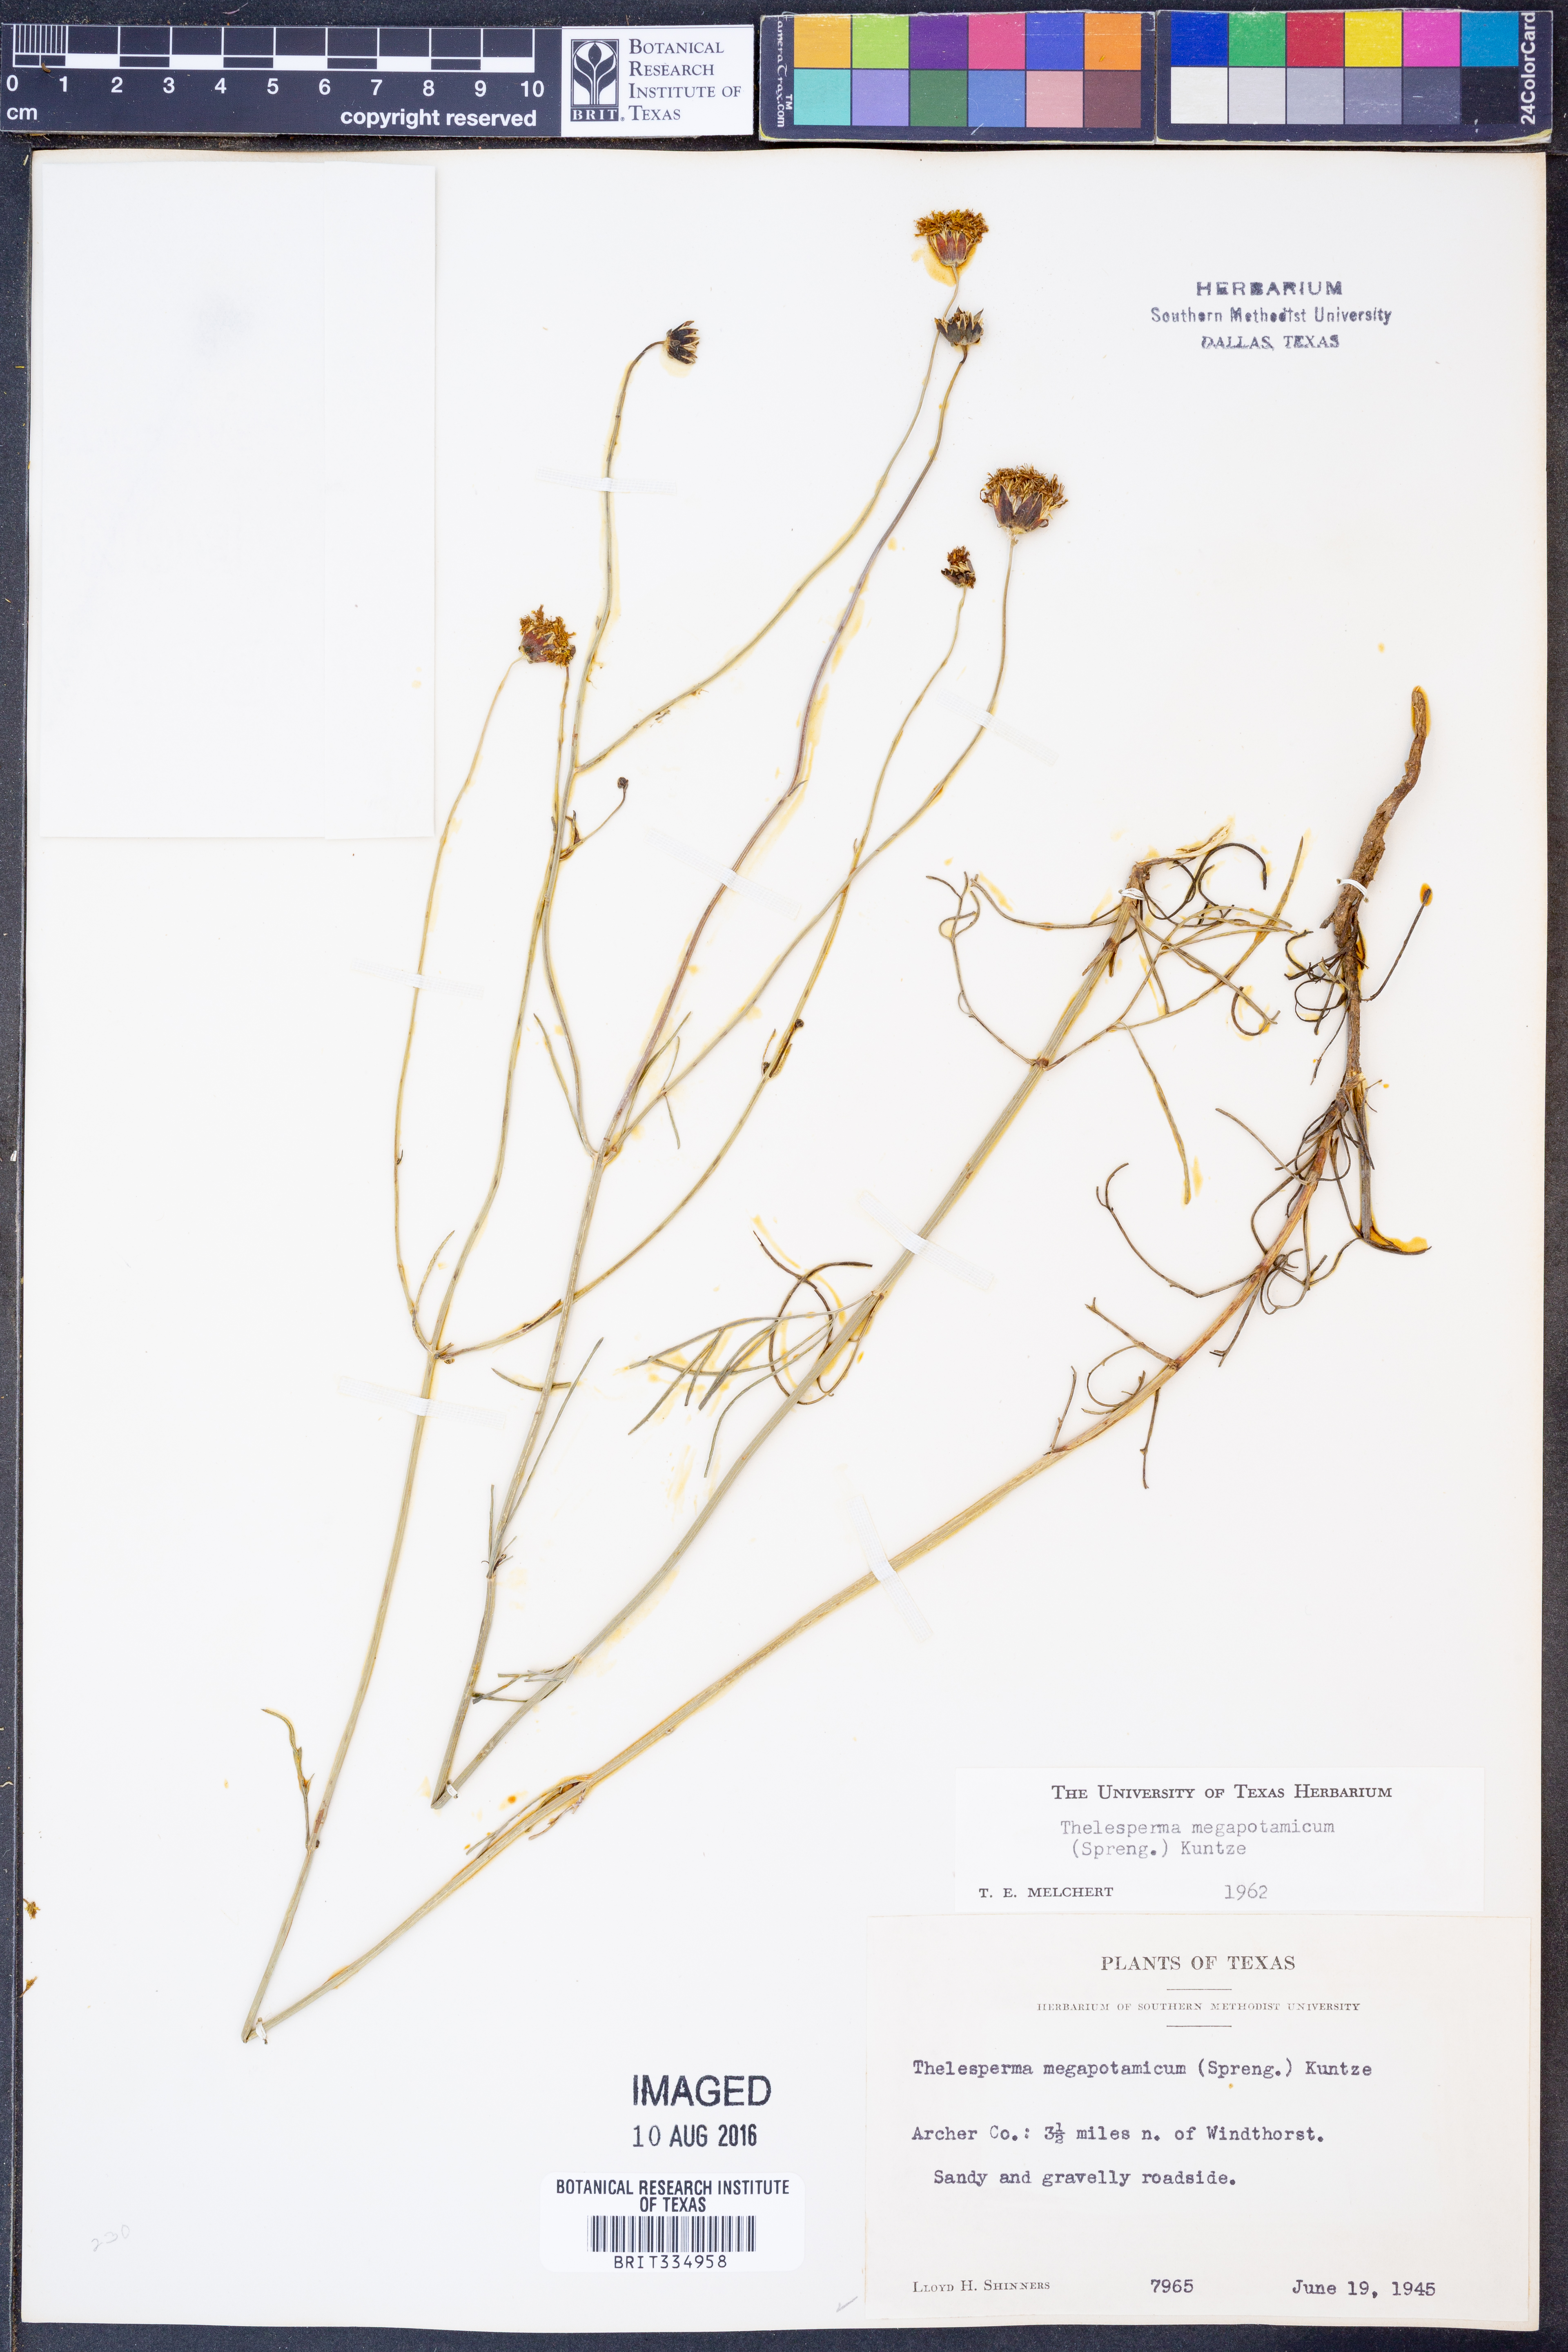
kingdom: Plantae
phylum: Tracheophyta
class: Magnoliopsida
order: Asterales
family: Asteraceae
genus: Thelesperma
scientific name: Thelesperma megapotamicum
